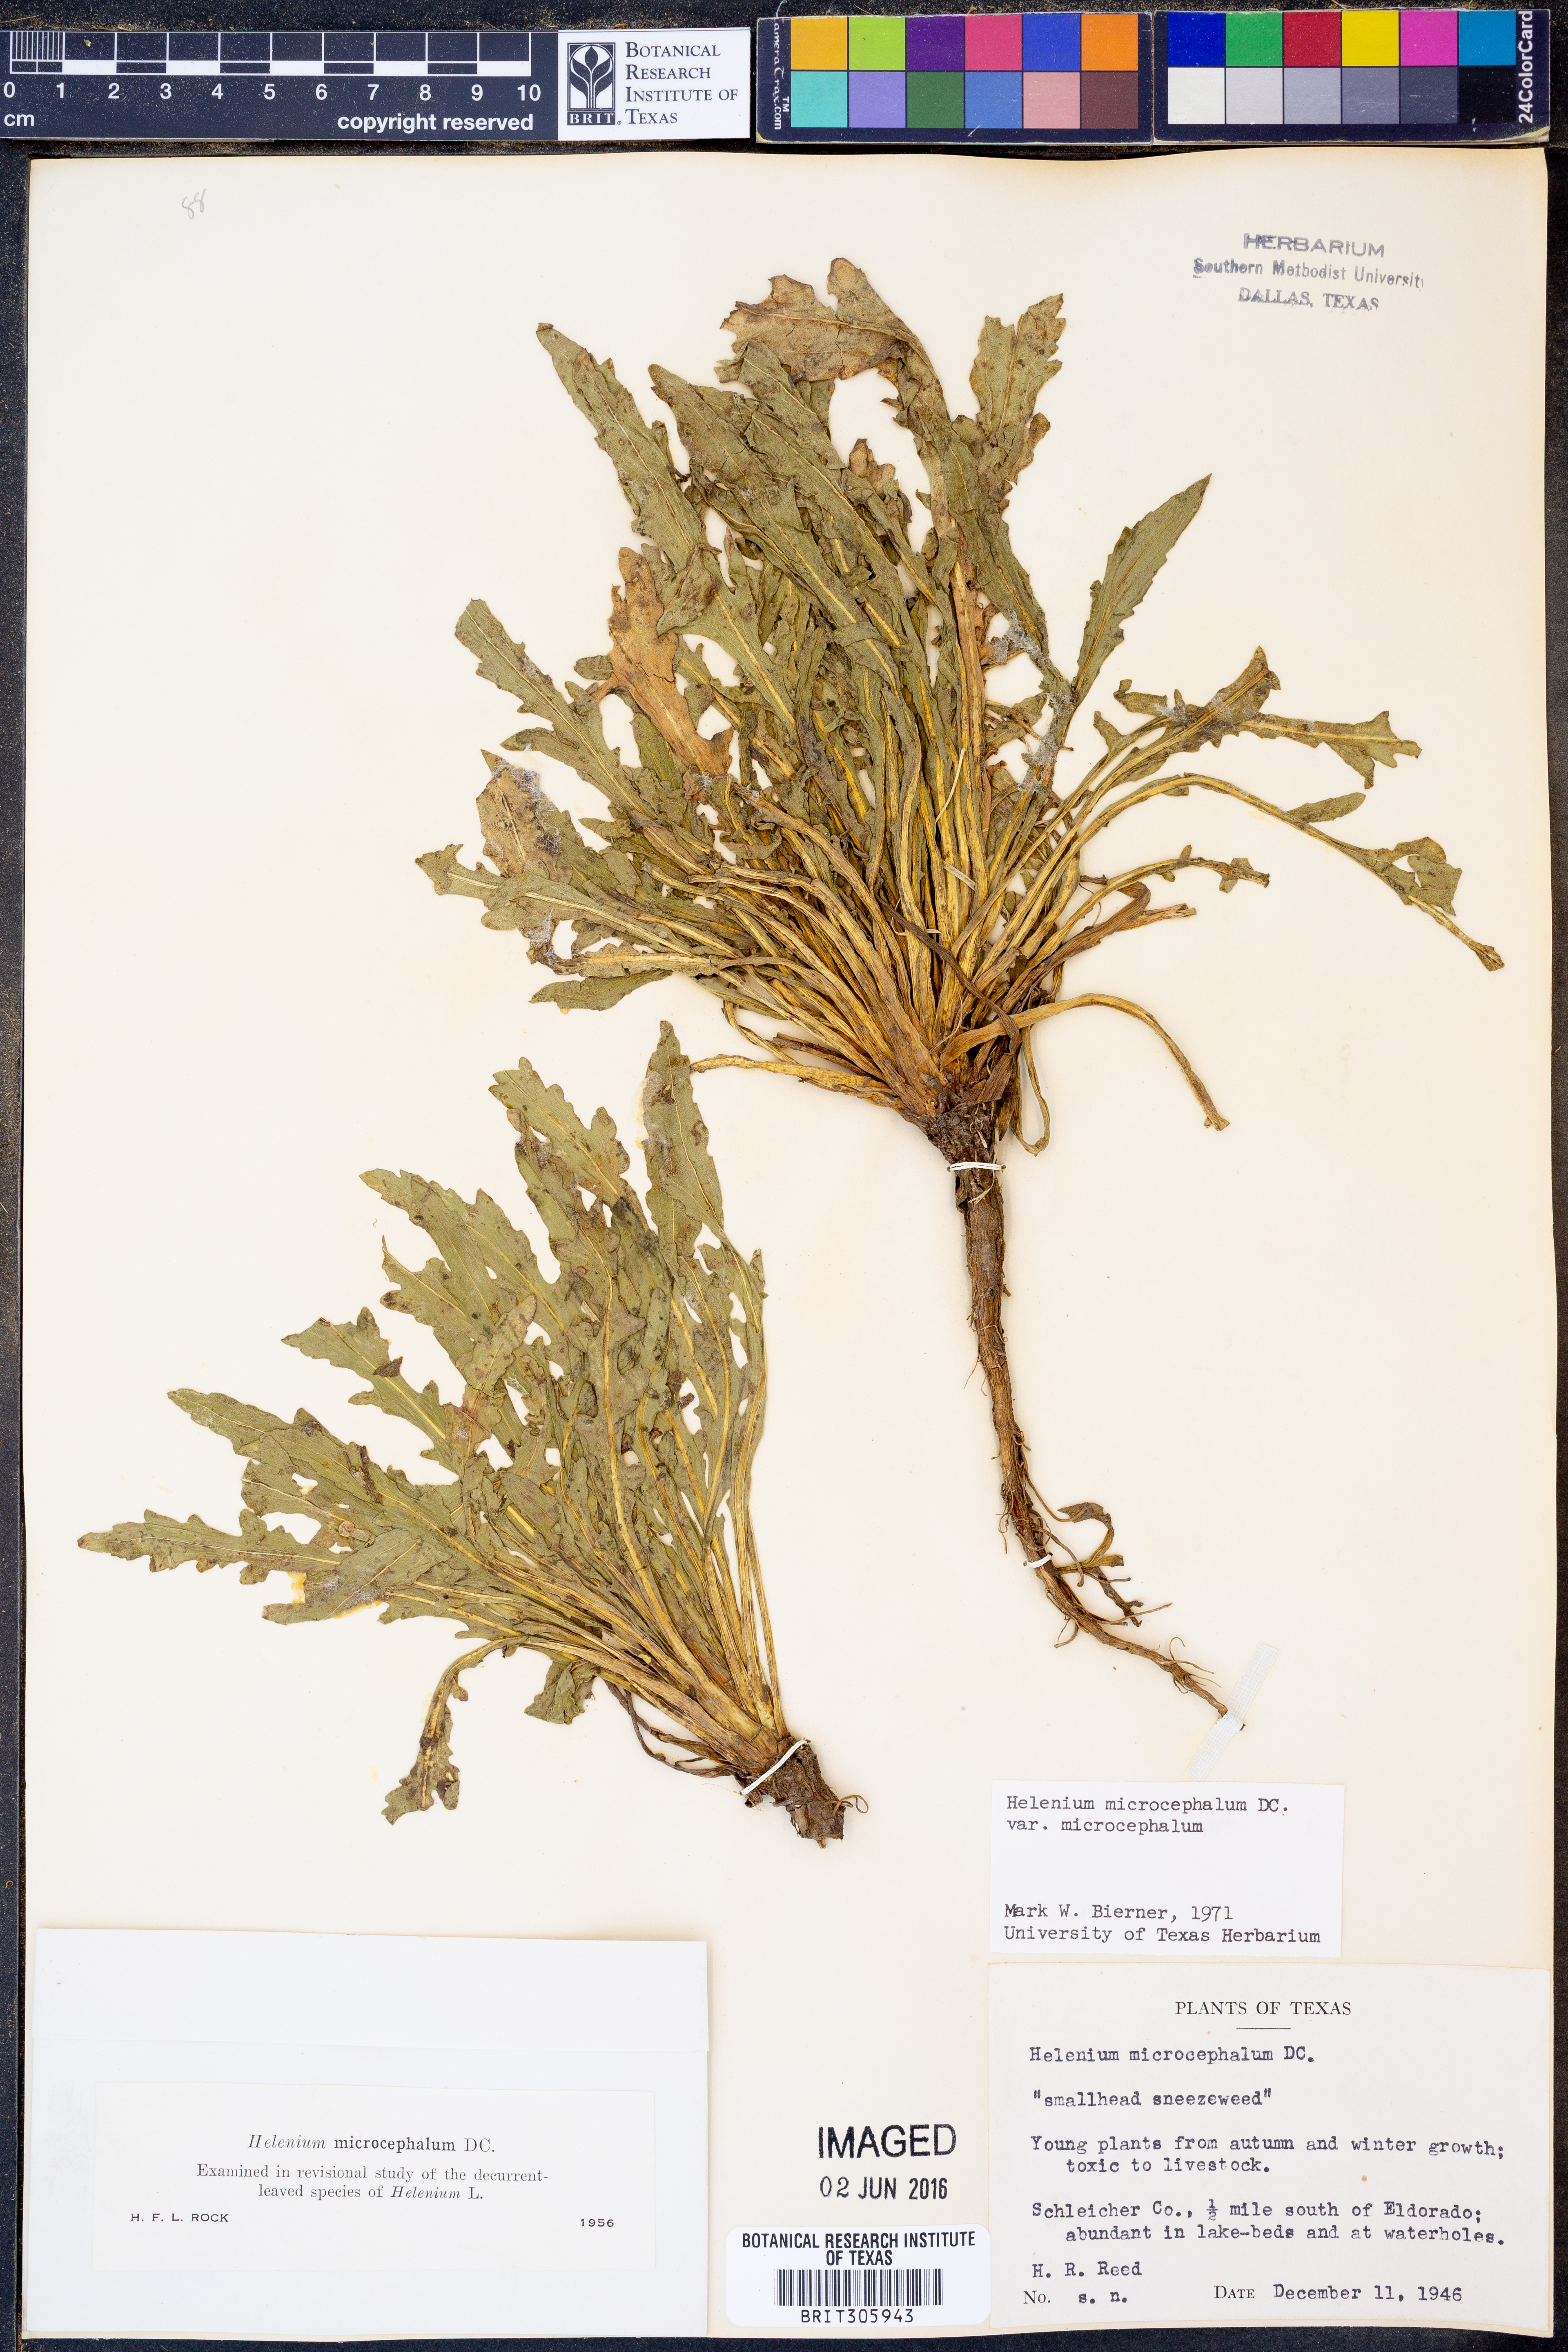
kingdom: Plantae
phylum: Tracheophyta
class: Magnoliopsida
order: Asterales
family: Asteraceae
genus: Helenium
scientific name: Helenium microcephalum
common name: Smallhead sneezeweed
